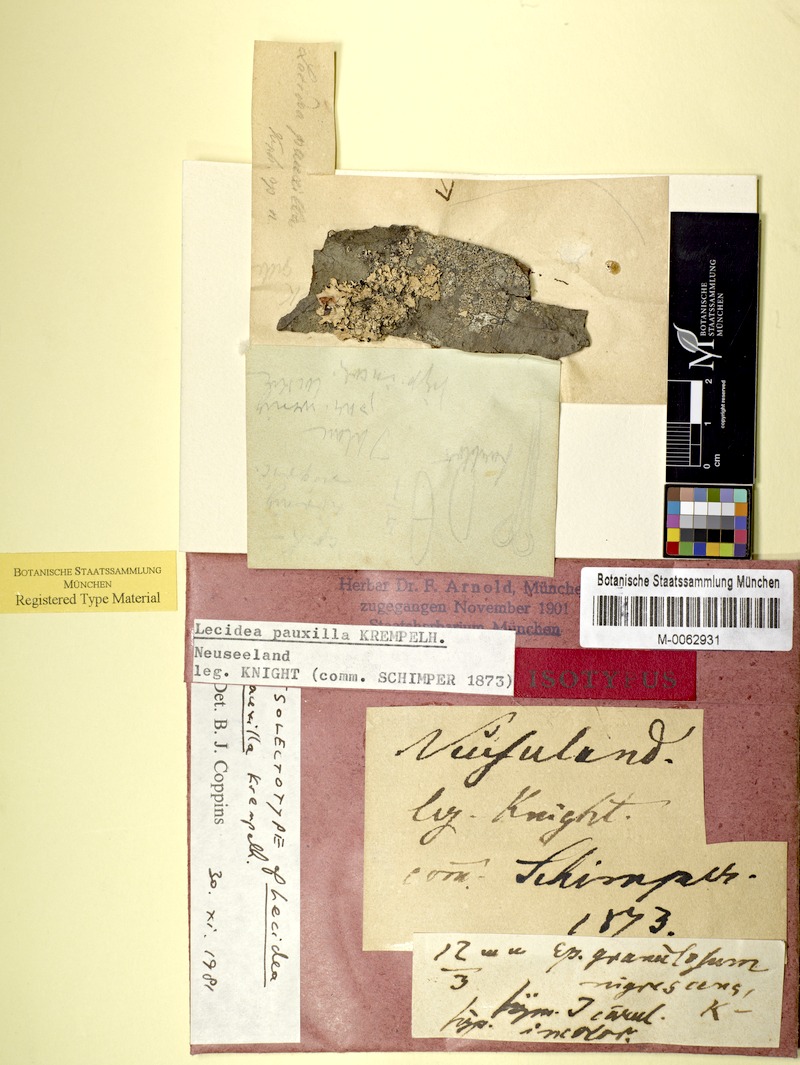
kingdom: Fungi
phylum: Ascomycota
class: Lecanoromycetes
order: Lecanorales
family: Ramalinaceae
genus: Cliostomum
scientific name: Cliostomum griffithii
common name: Multicolored dot lichen
